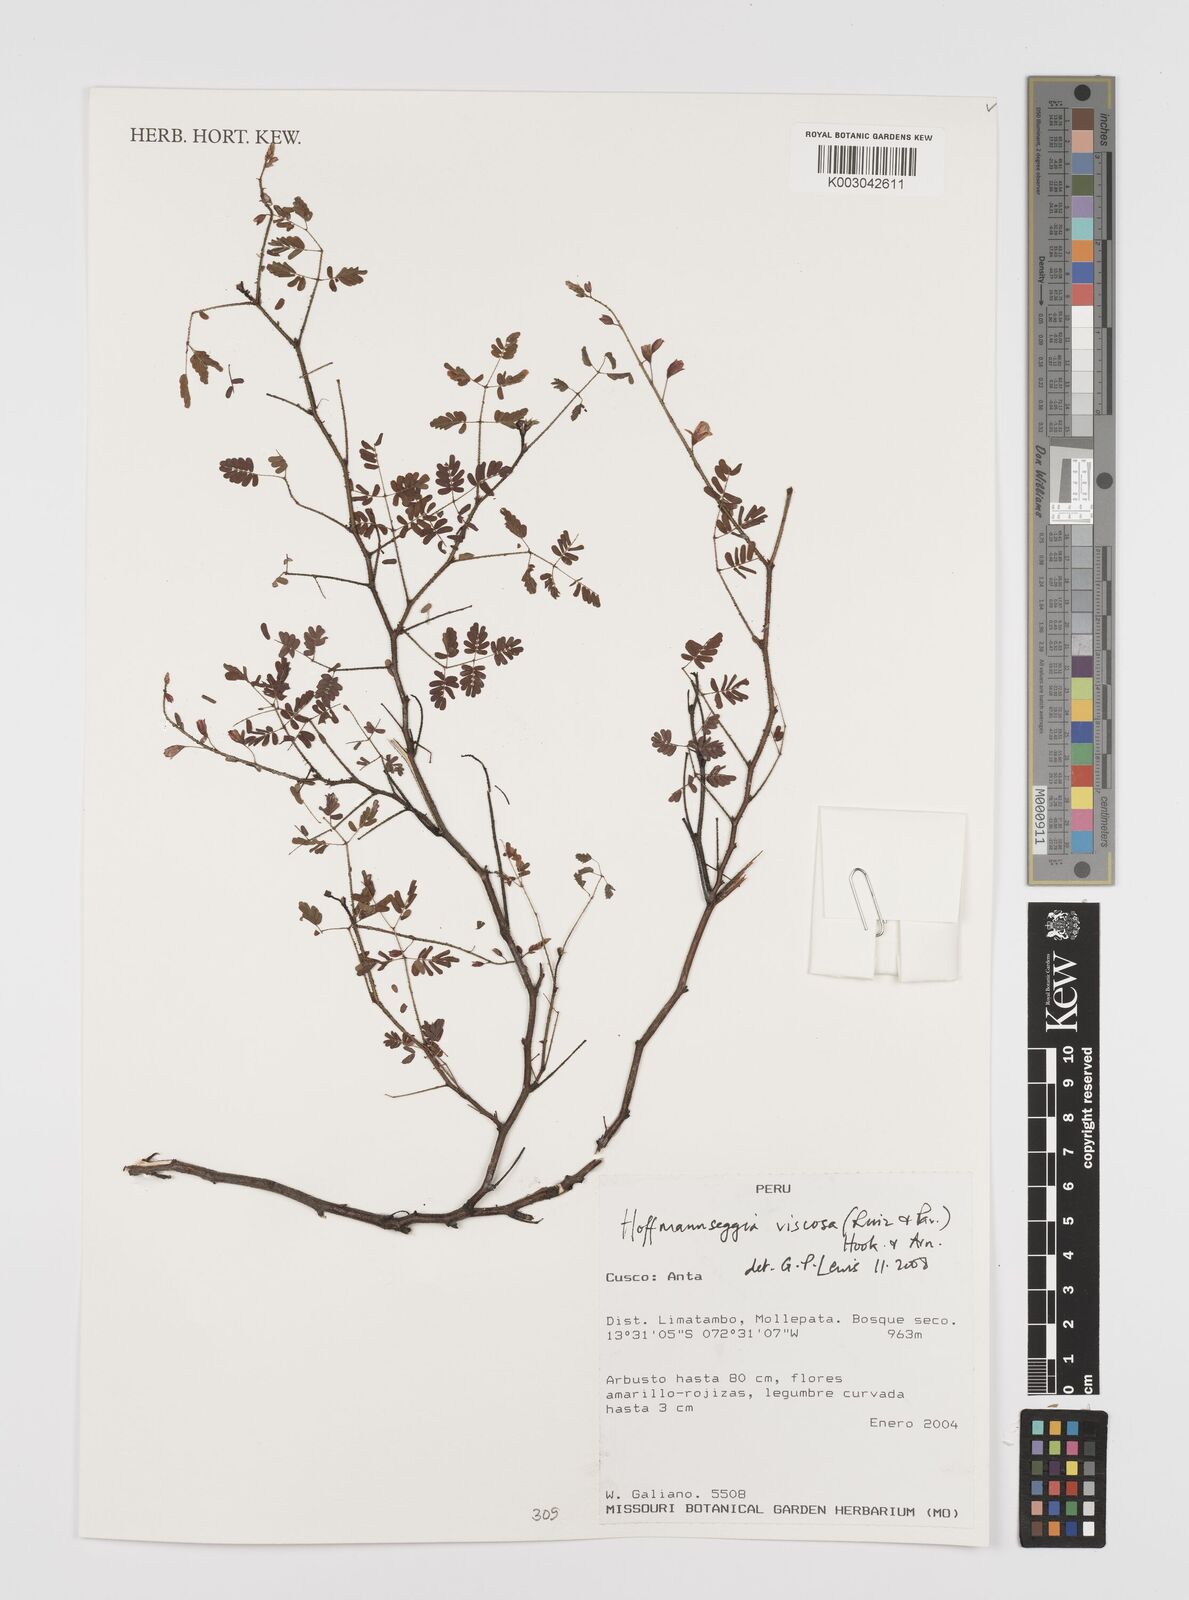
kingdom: Plantae
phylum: Tracheophyta
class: Magnoliopsida
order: Fabales
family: Fabaceae
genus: Hoffmannseggia
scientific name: Hoffmannseggia viscosa
